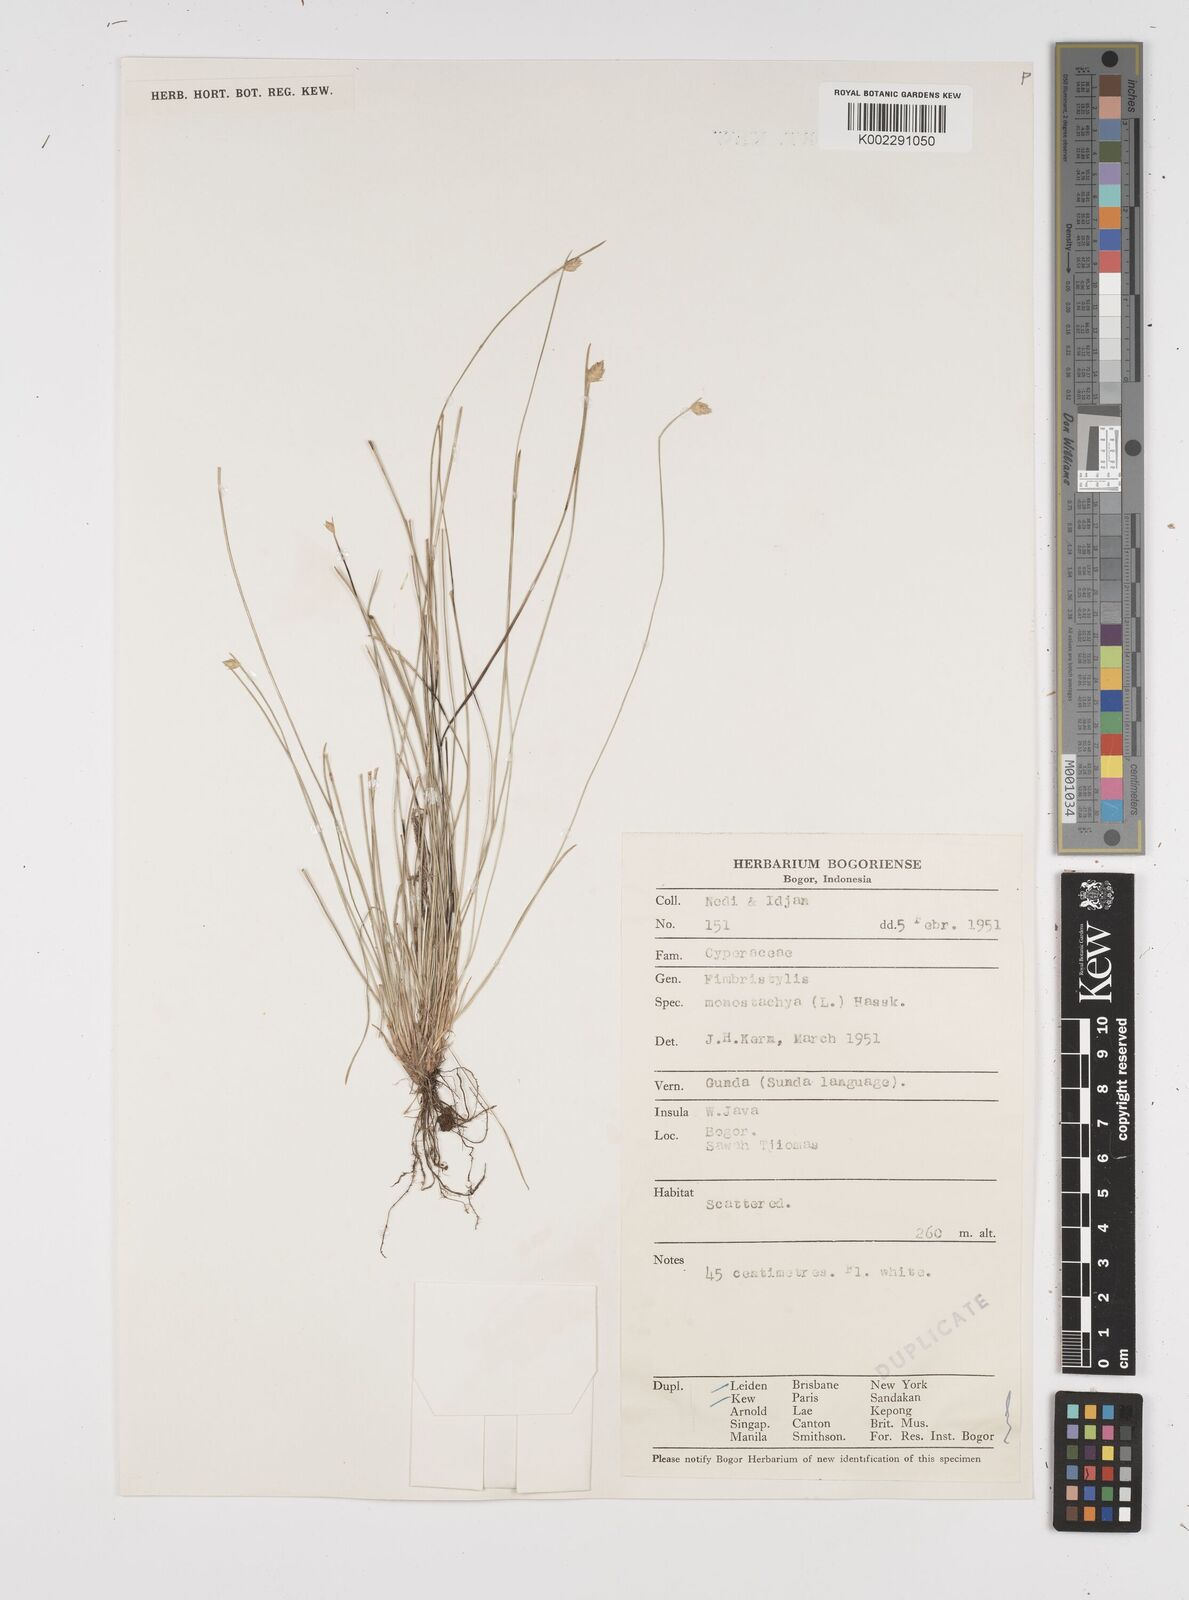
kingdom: Plantae
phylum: Tracheophyta
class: Liliopsida
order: Poales
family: Cyperaceae
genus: Abildgaardia
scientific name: Abildgaardia ovata
